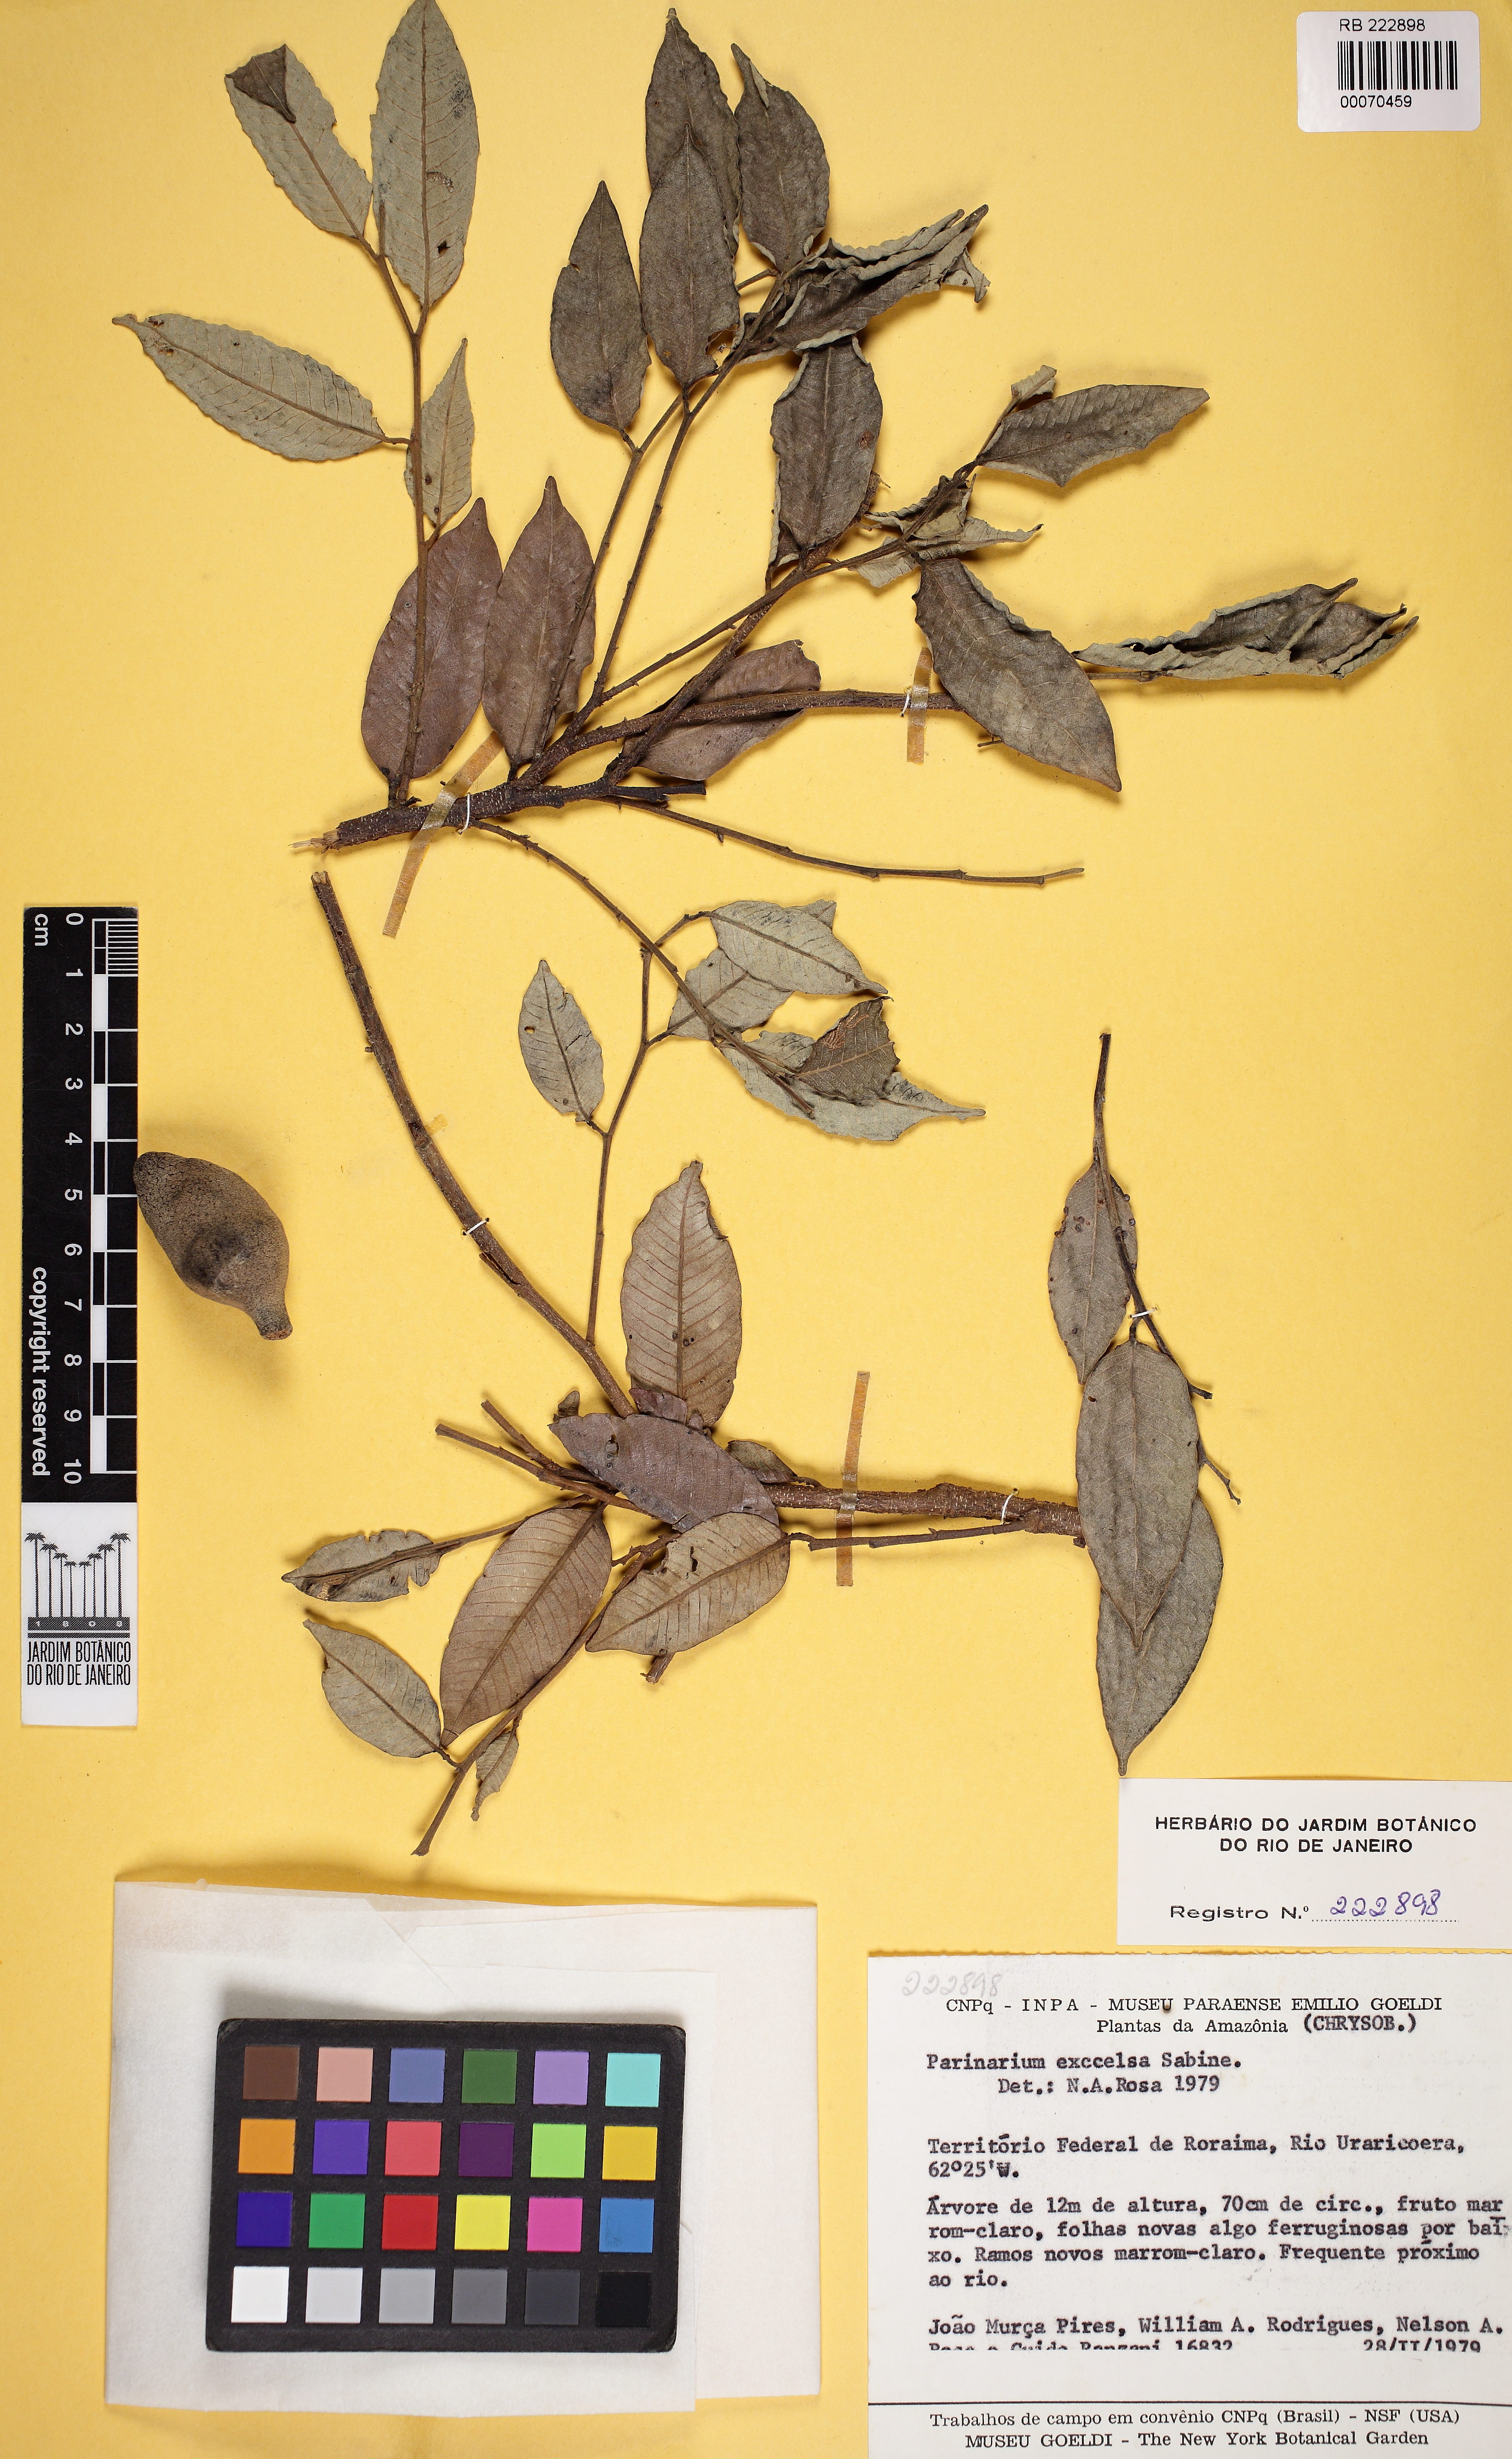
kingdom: Plantae
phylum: Tracheophyta
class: Magnoliopsida
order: Malpighiales
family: Chrysobalanaceae
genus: Parinari
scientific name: Parinari excelsa
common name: Guinea-plum
